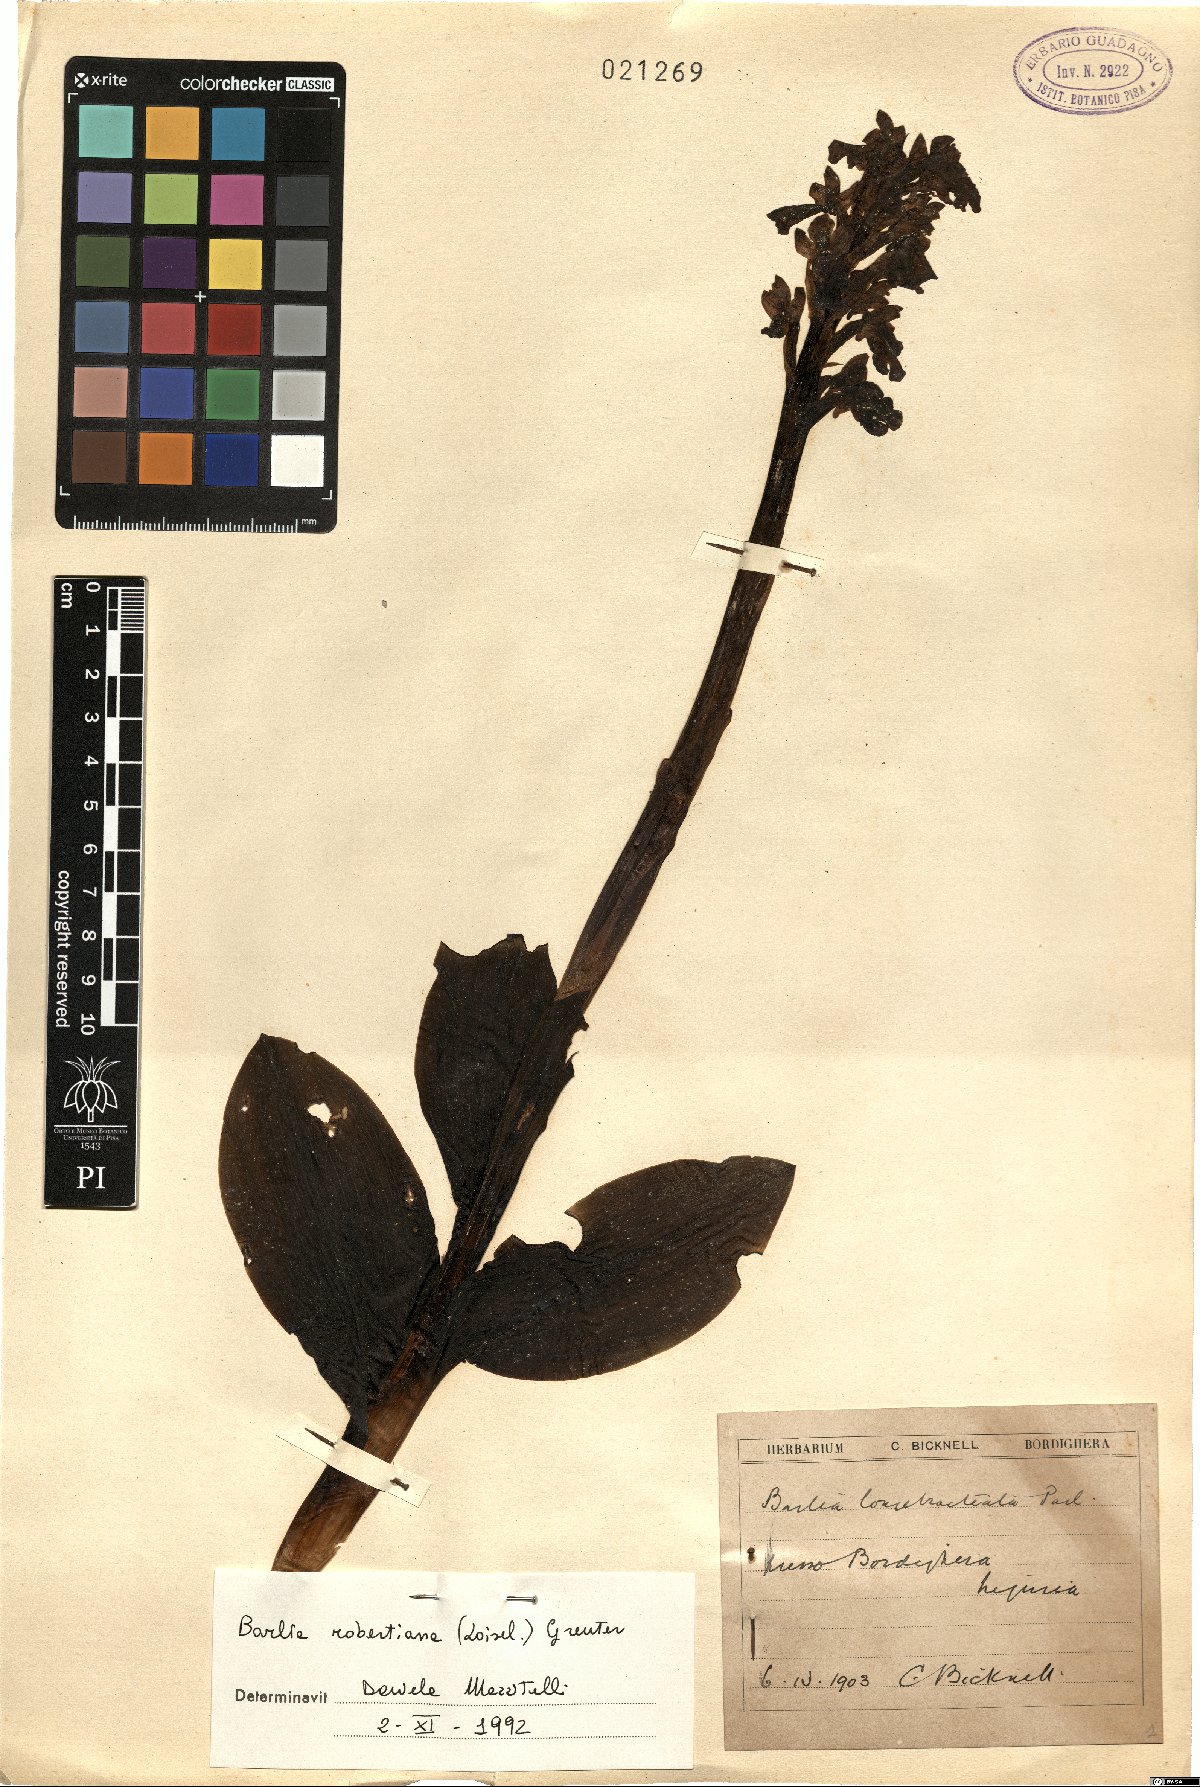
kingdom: Plantae
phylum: Tracheophyta
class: Liliopsida
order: Asparagales
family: Orchidaceae
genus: Himantoglossum
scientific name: Himantoglossum robertianum
